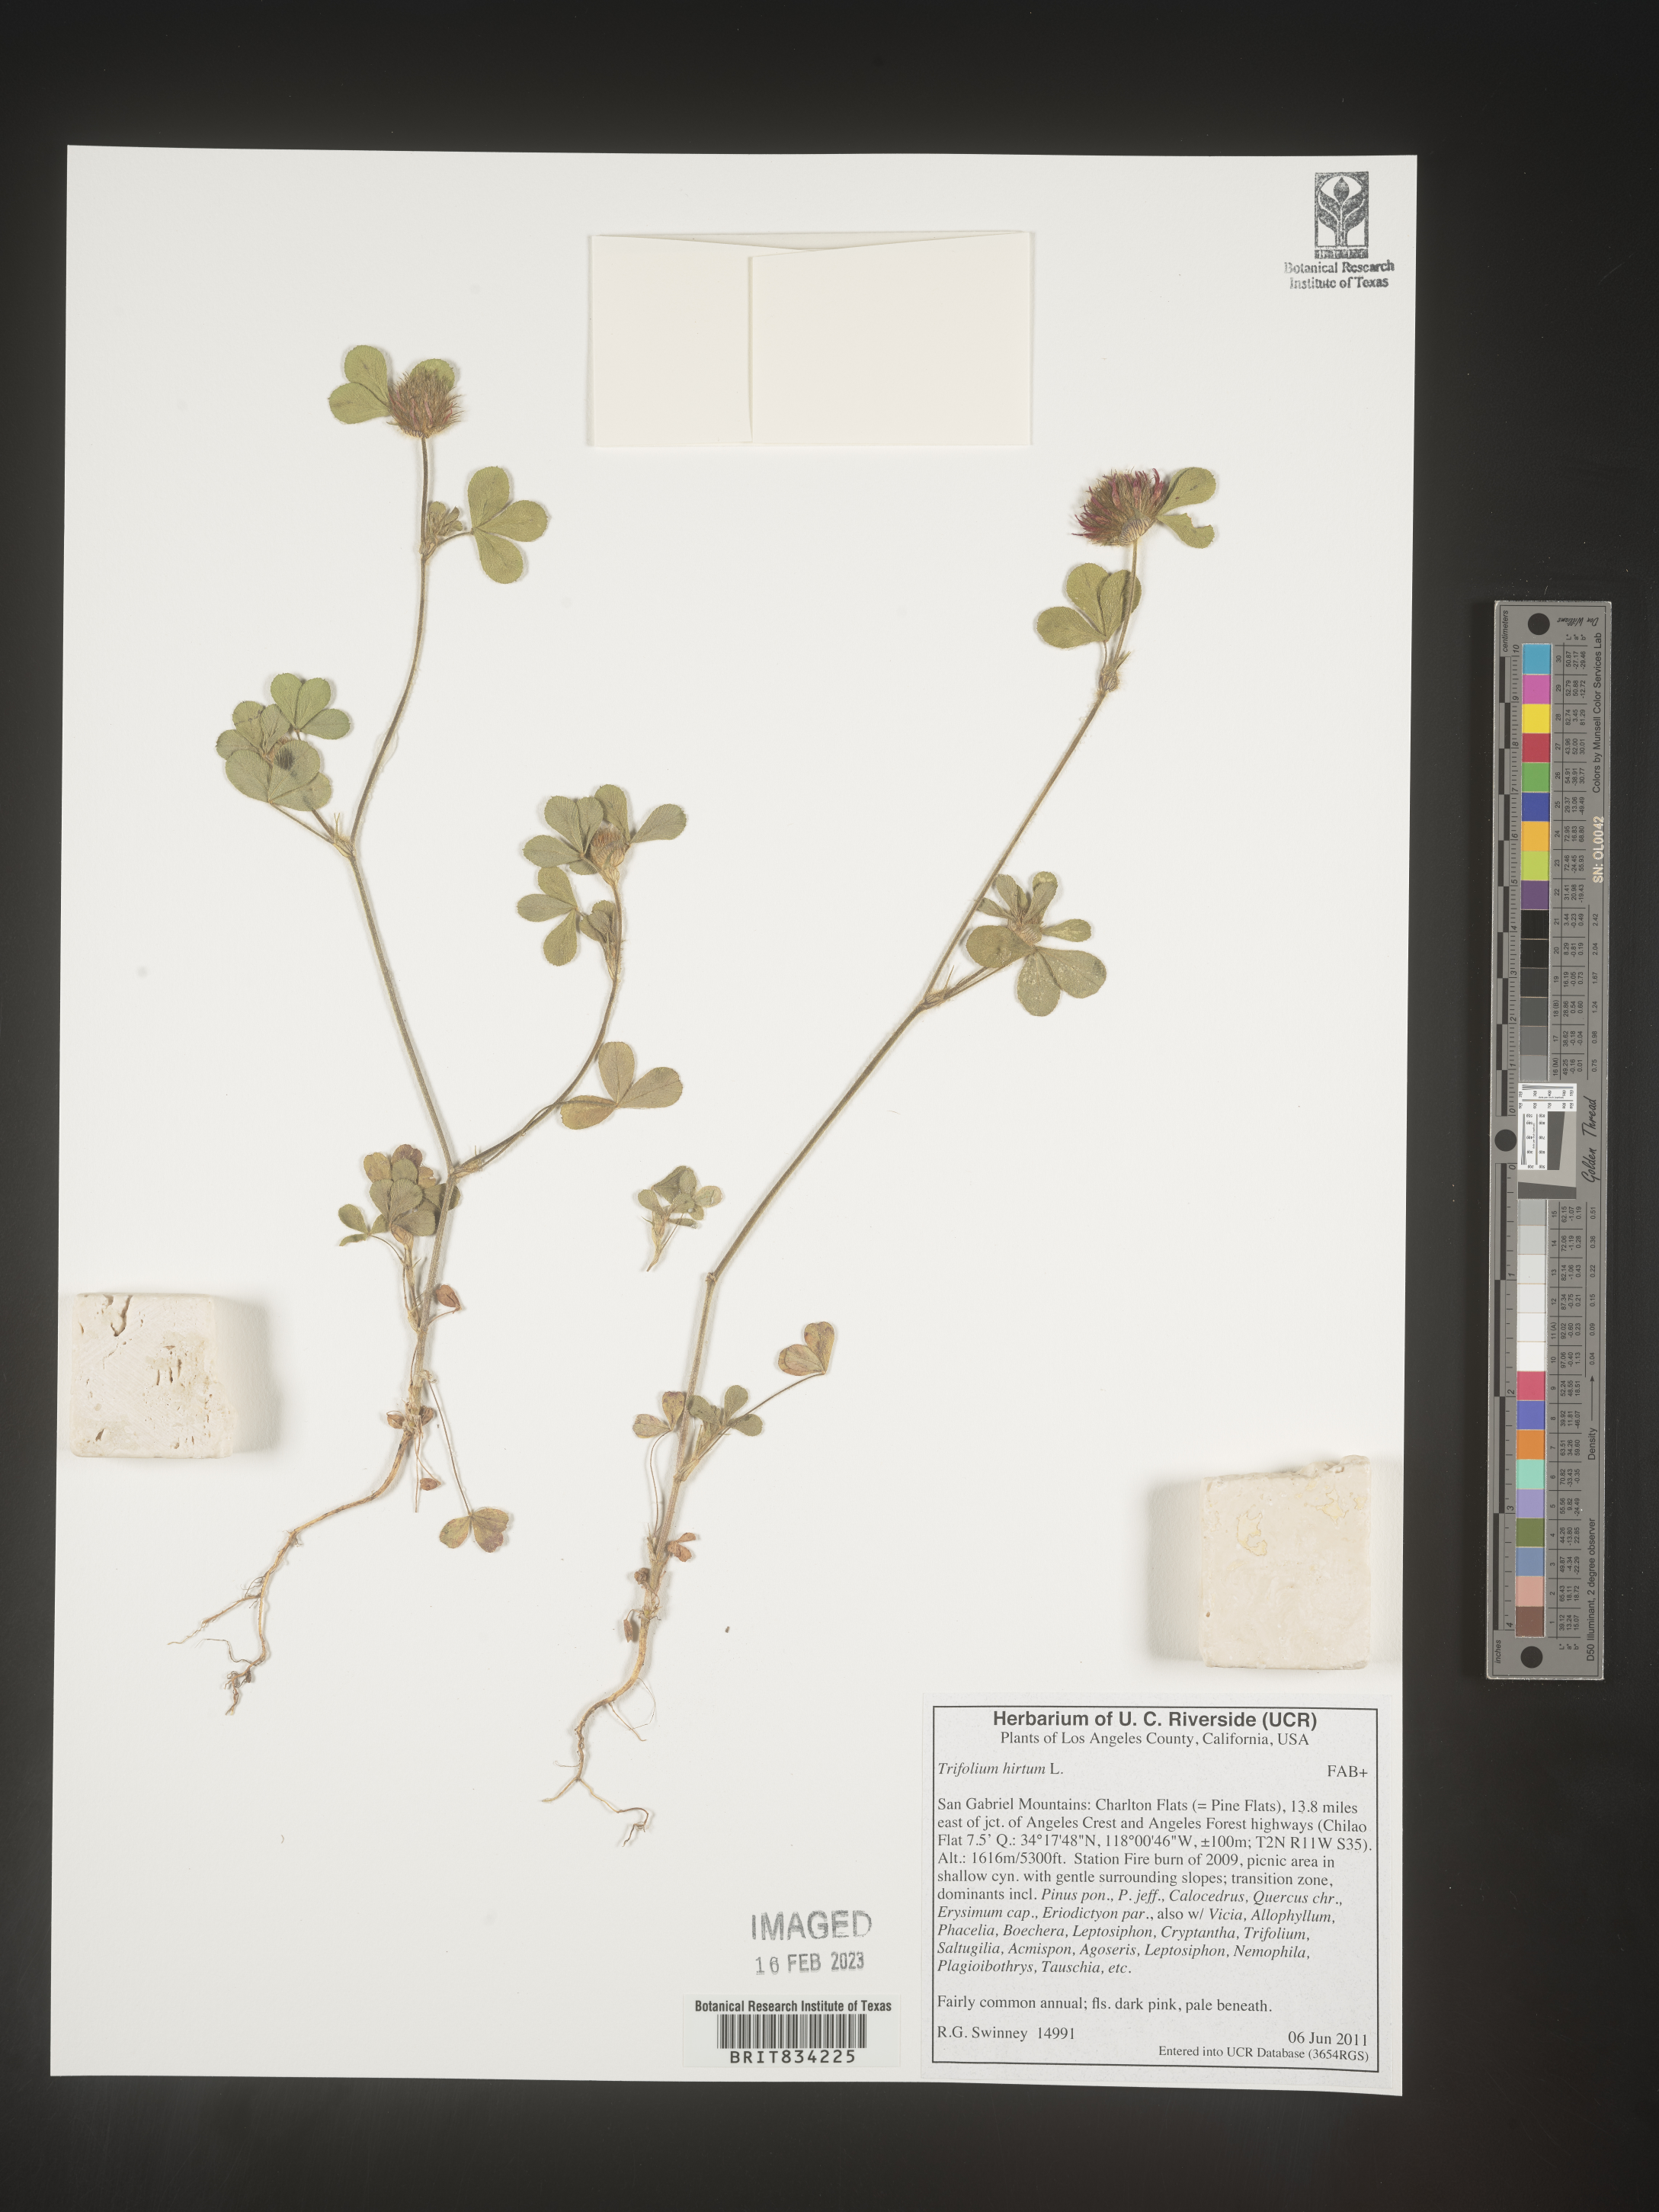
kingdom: Plantae
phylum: Tracheophyta
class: Magnoliopsida
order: Fabales
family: Fabaceae
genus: Trifolium
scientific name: Trifolium
